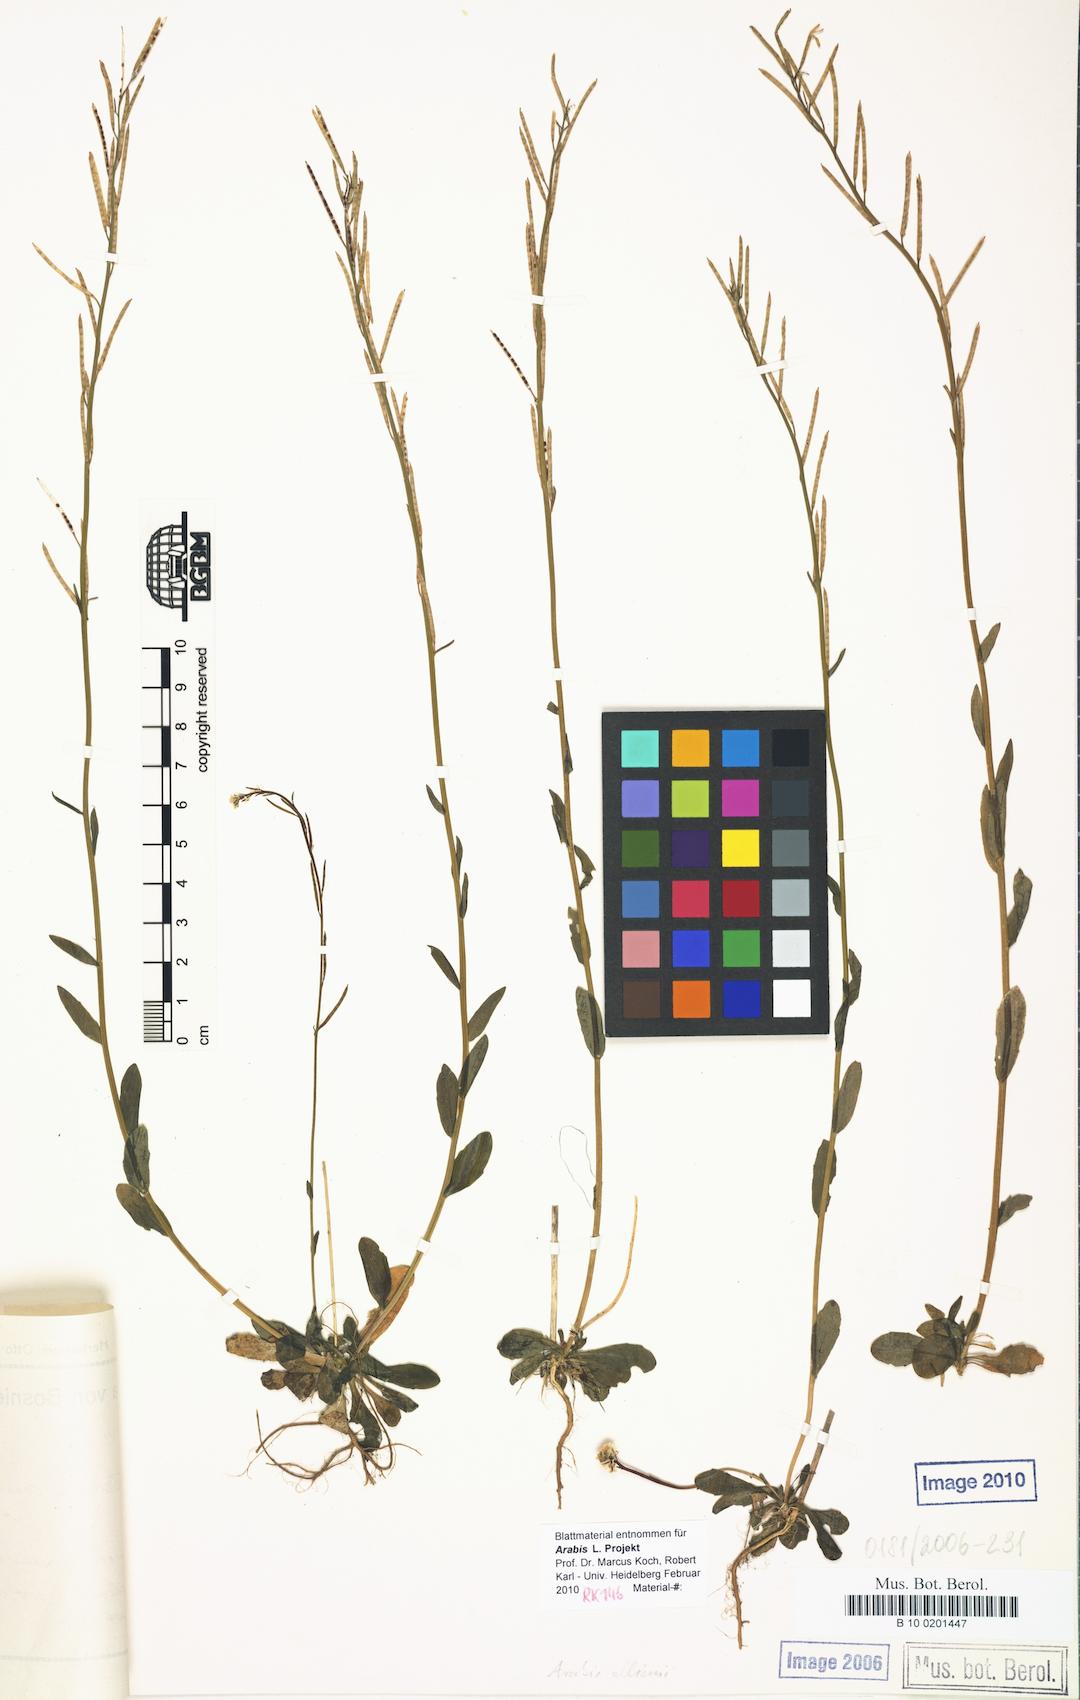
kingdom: Plantae
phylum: Tracheophyta
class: Magnoliopsida
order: Brassicales
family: Brassicaceae
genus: Arabis
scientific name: Arabis ciliata
